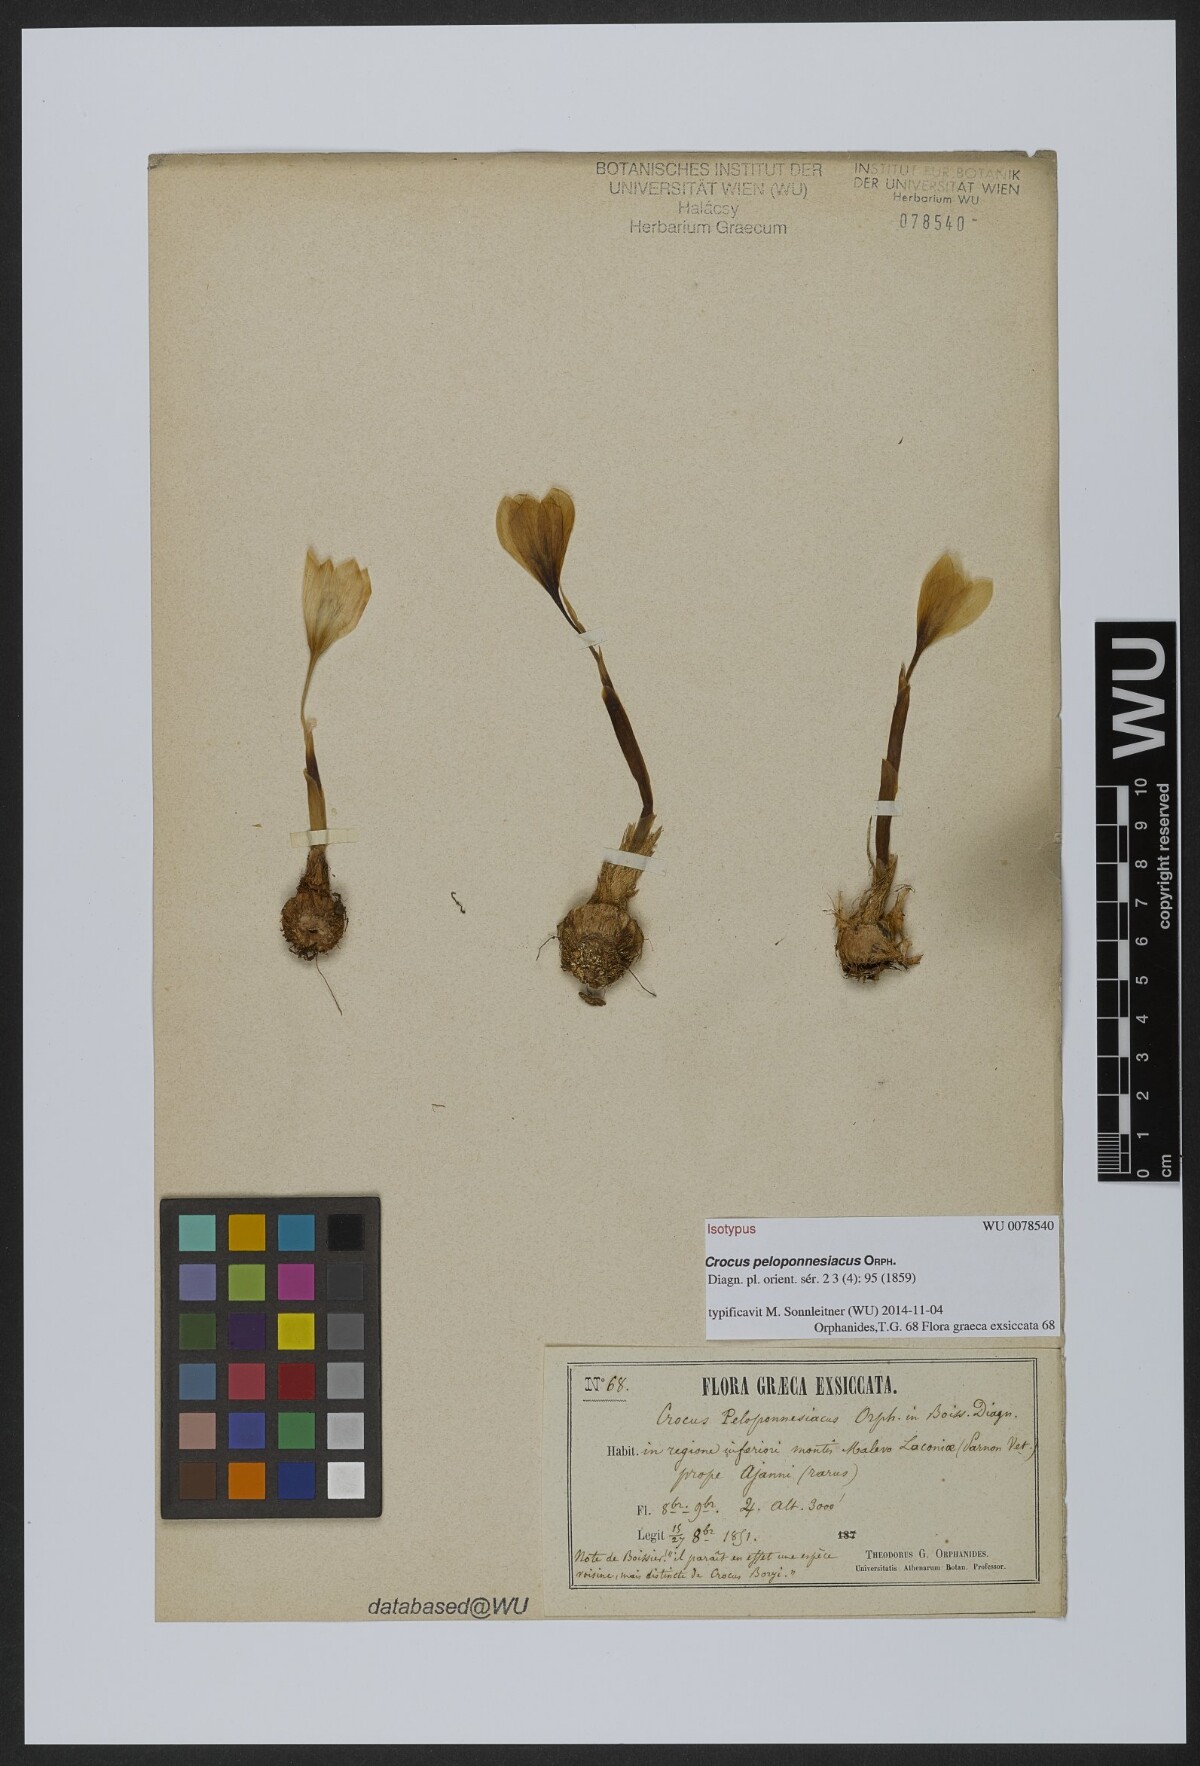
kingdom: Plantae
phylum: Tracheophyta
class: Liliopsida
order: Asparagales
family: Iridaceae
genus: Crocus
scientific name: Crocus hadriaticus
